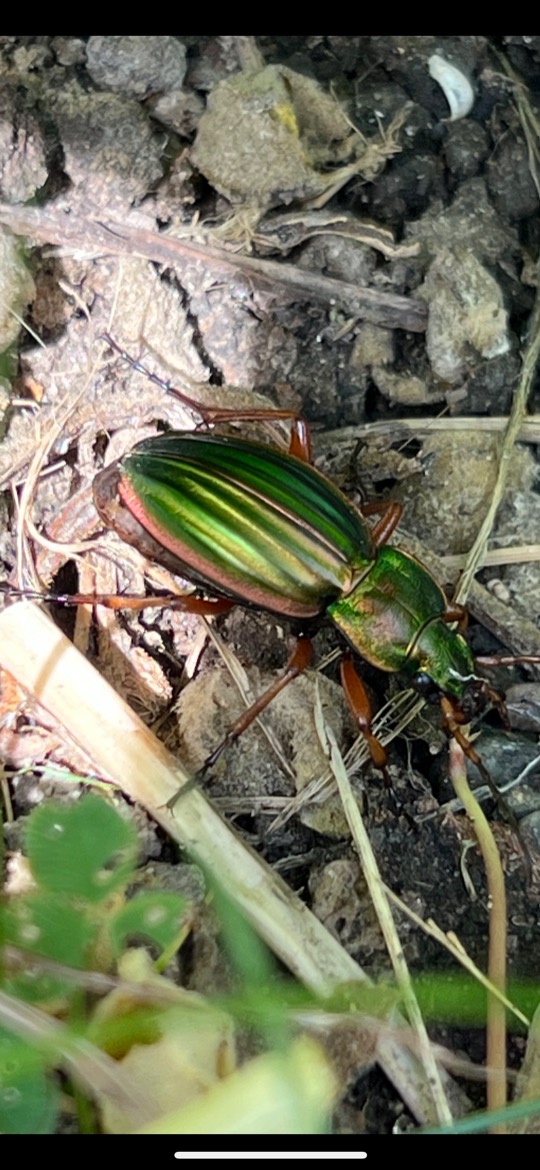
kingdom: Animalia
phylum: Arthropoda
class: Insecta
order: Coleoptera
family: Carabidae
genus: Carabus
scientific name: Carabus auratus
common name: Stor guldløber
